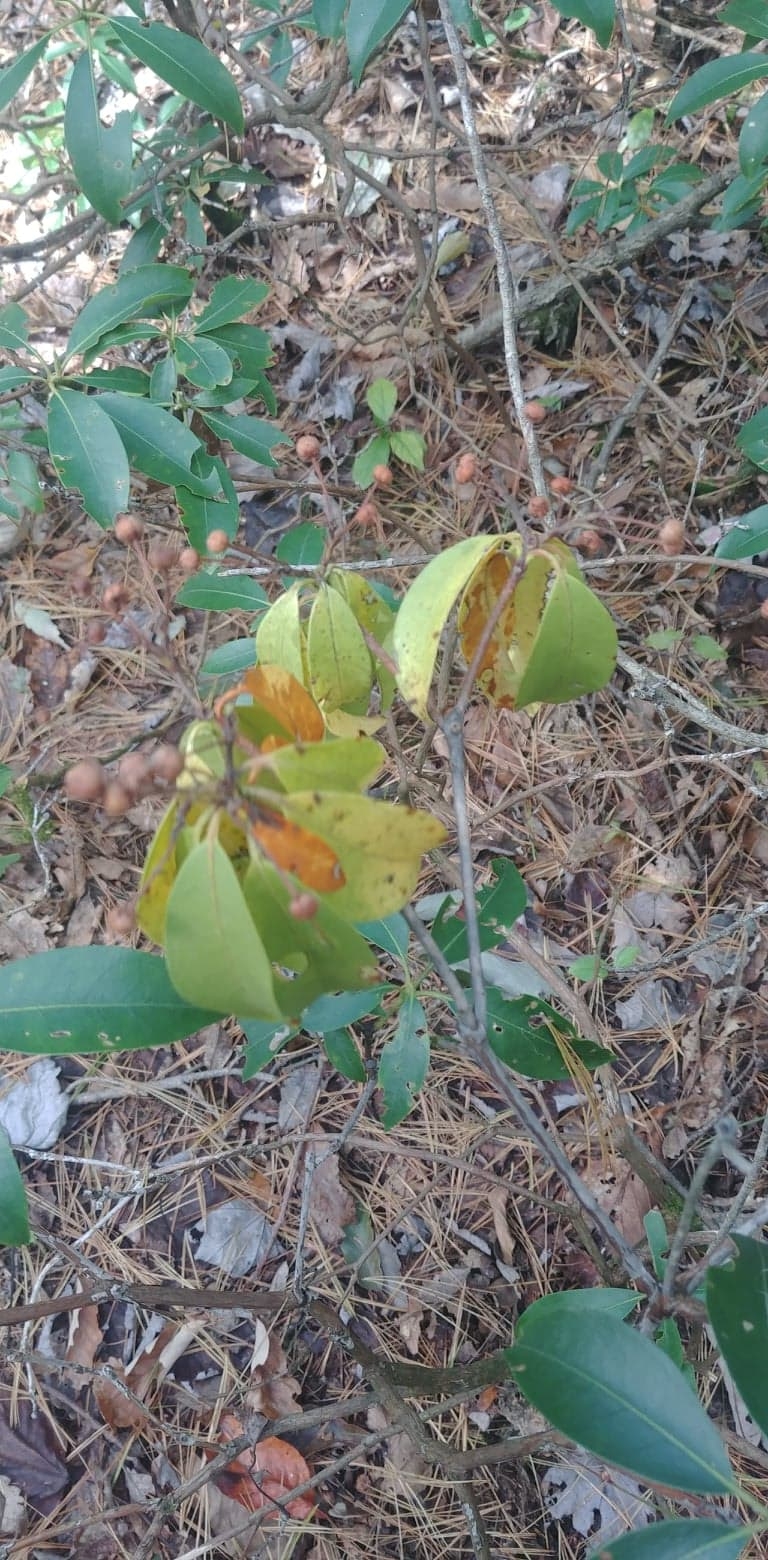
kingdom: Plantae
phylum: Tracheophyta
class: Magnoliopsida
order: Ericales
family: Ericaceae
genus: Kalmia
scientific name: Kalmia latifolia
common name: Mountain Laurel
